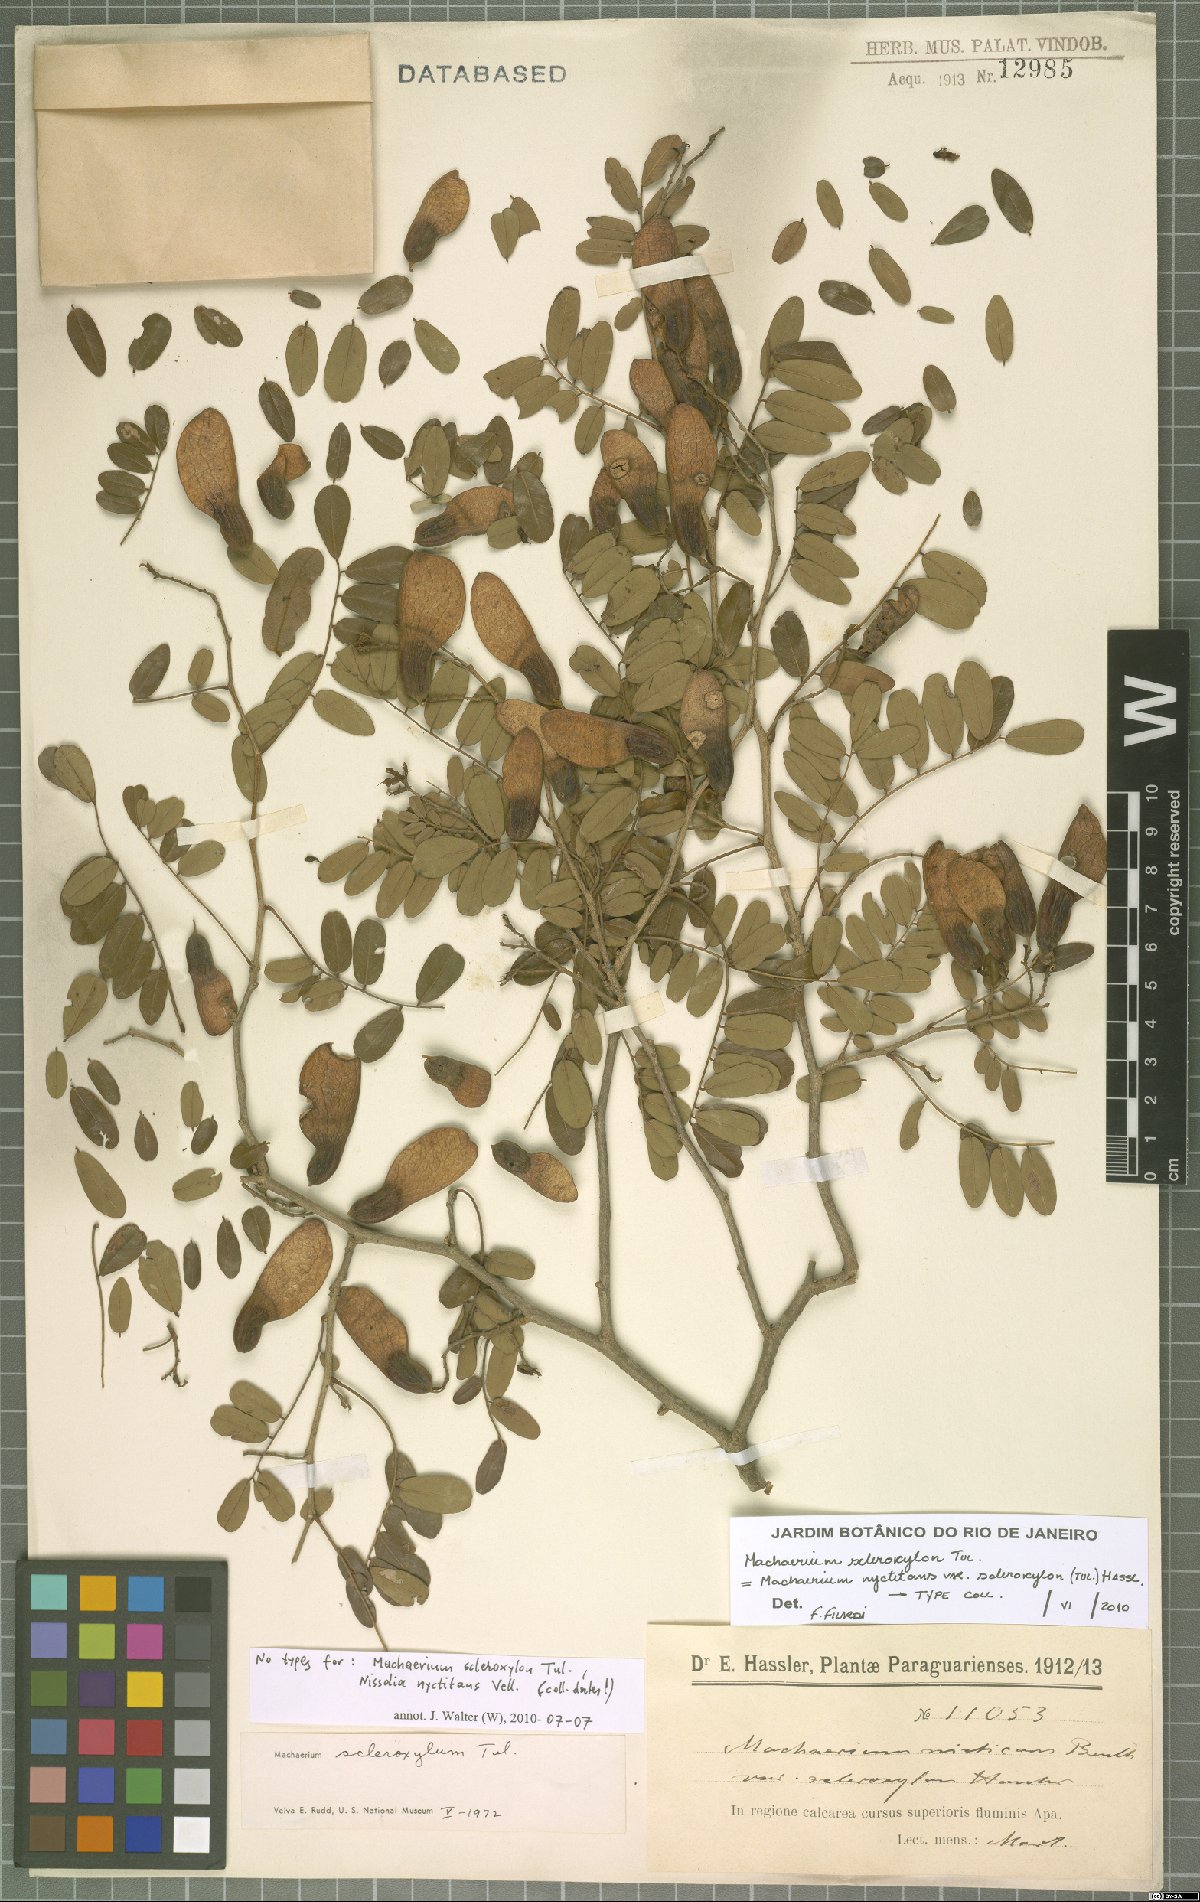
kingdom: Plantae
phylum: Tracheophyta
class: Magnoliopsida
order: Fabales
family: Fabaceae
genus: Machaerium
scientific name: Machaerium scleroxylon
